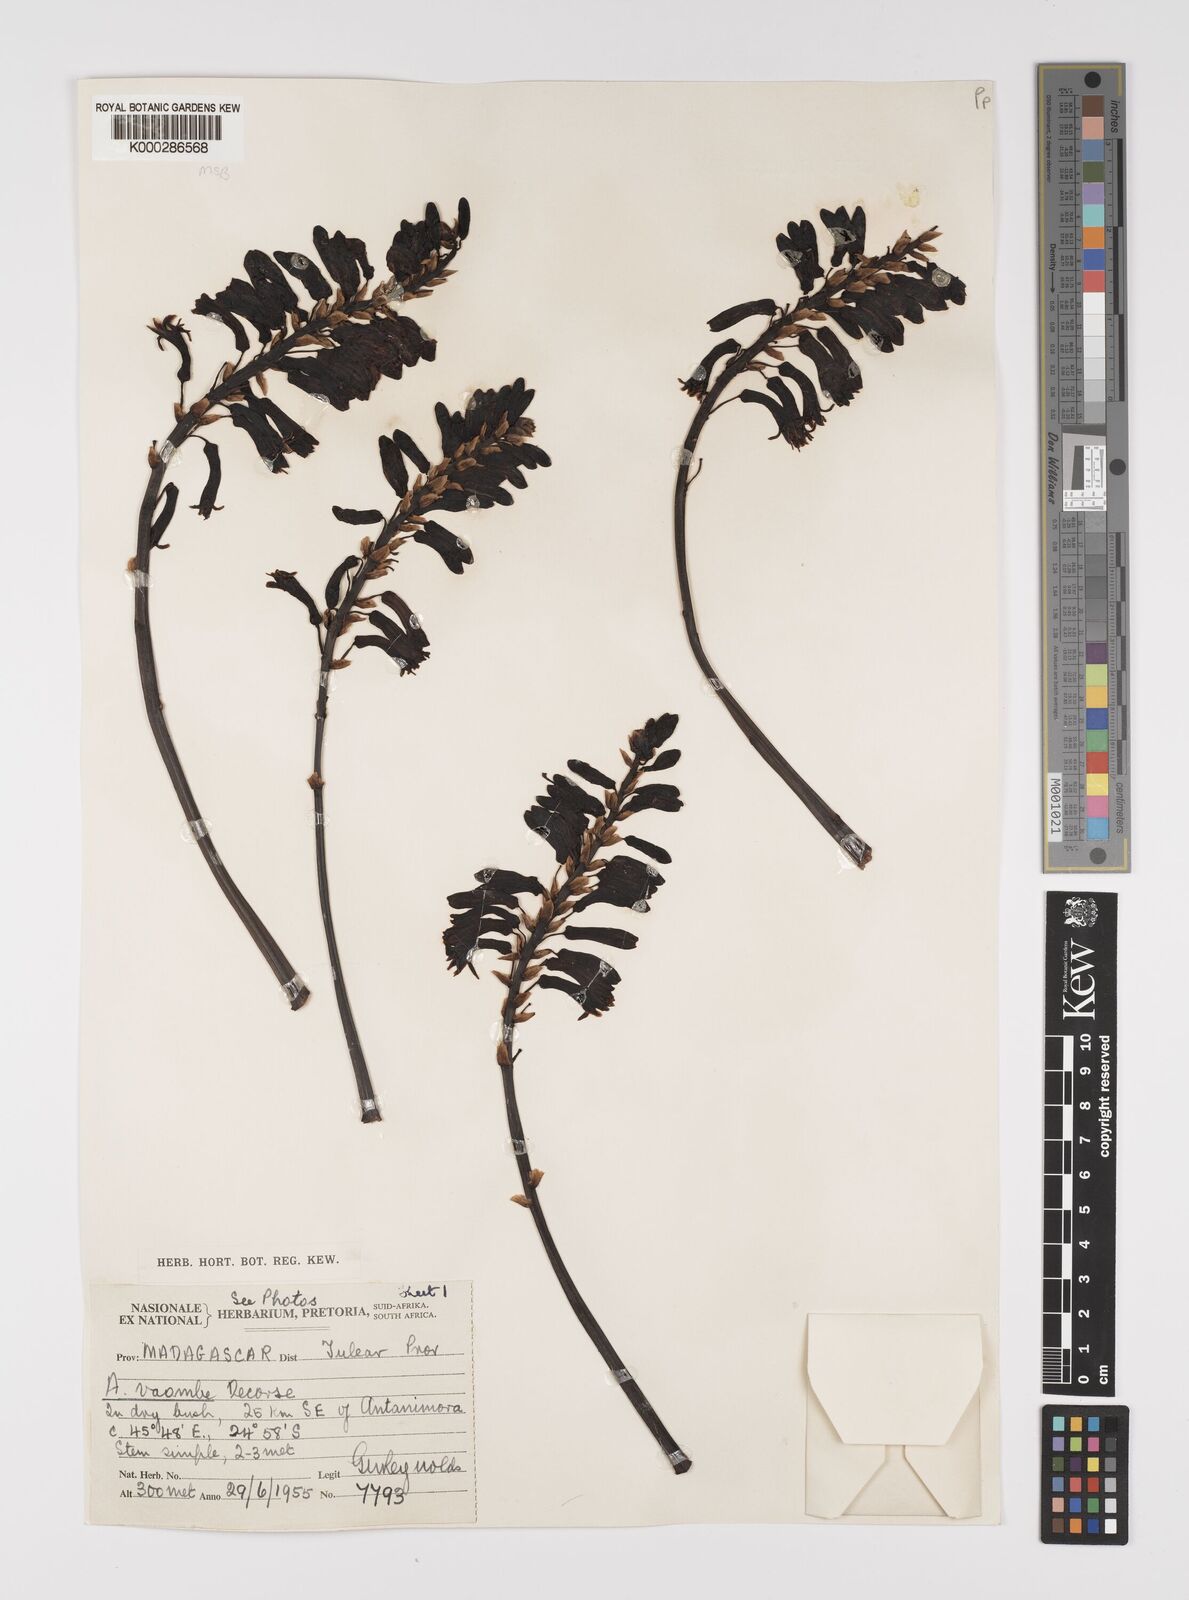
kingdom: Plantae
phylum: Tracheophyta
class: Liliopsida
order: Asparagales
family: Asphodelaceae
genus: Aloe
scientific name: Aloe vaombe
